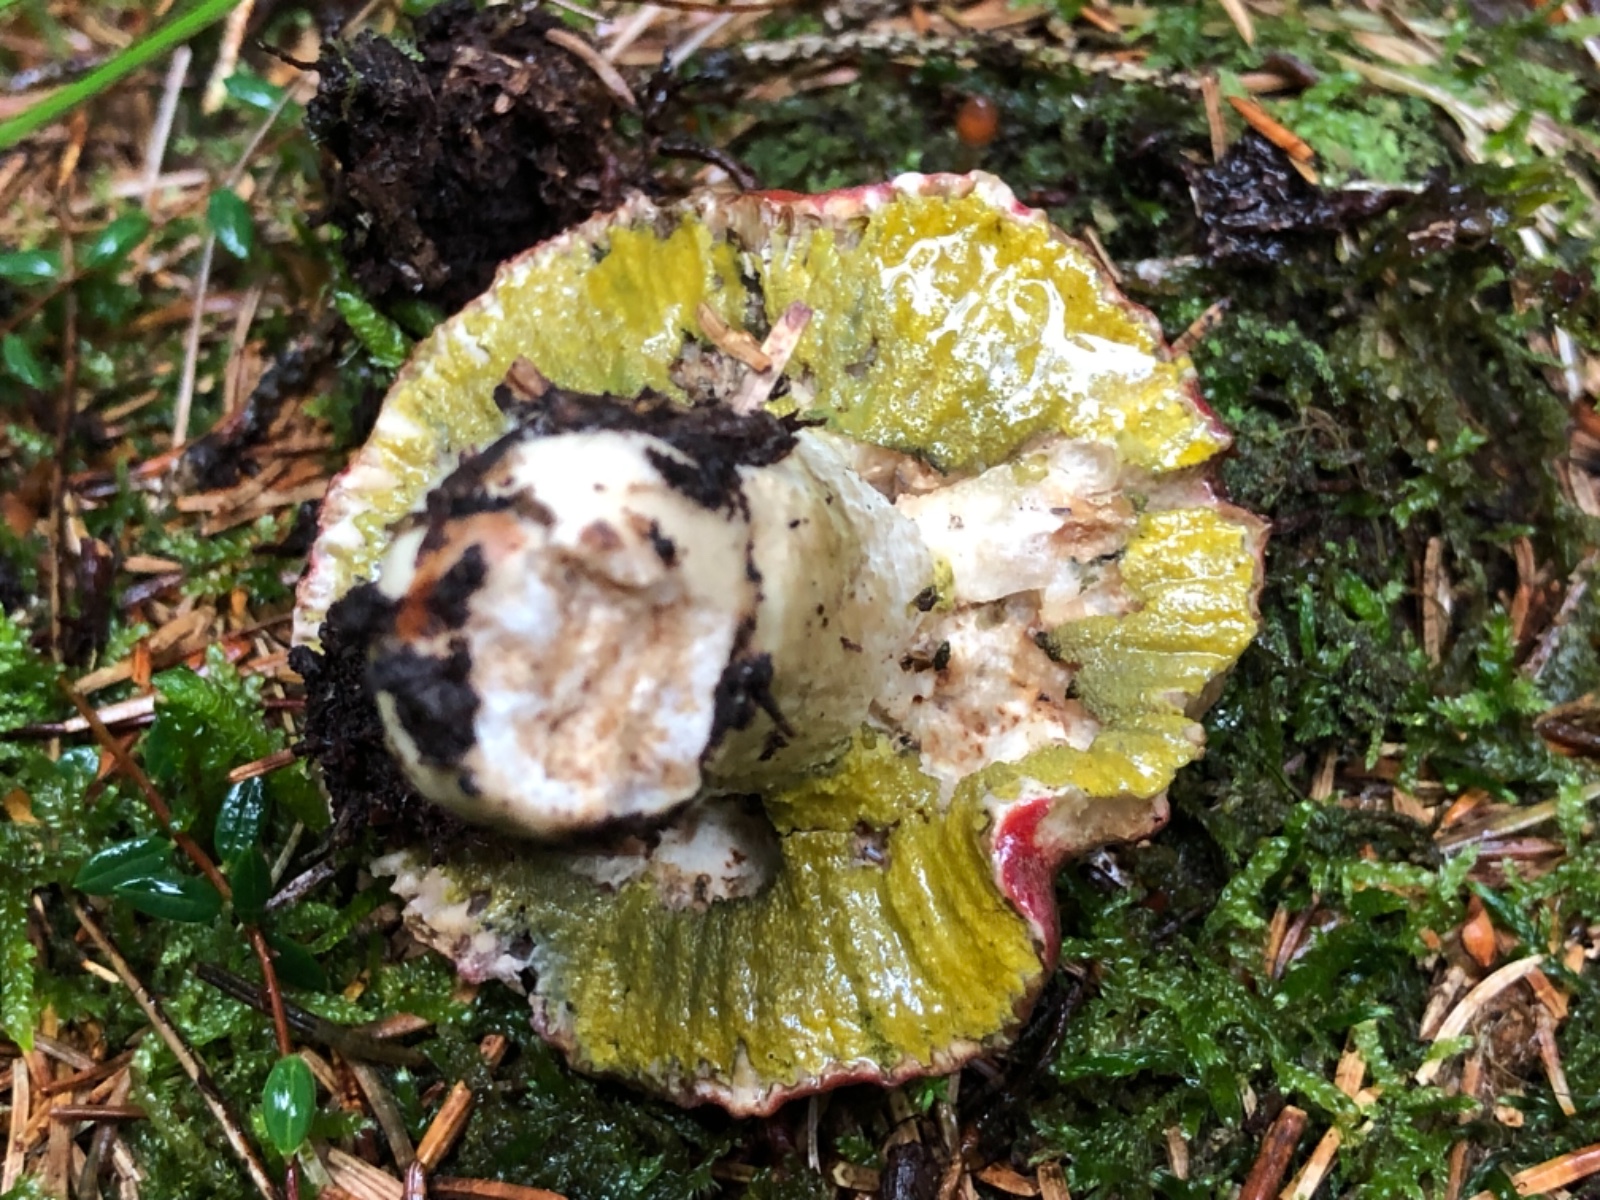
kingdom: Fungi
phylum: Ascomycota
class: Sordariomycetes
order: Hypocreales
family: Hypocreaceae
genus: Hypomyces
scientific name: Hypomyces luteovirens
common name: gulgrøn snylteskorpe
